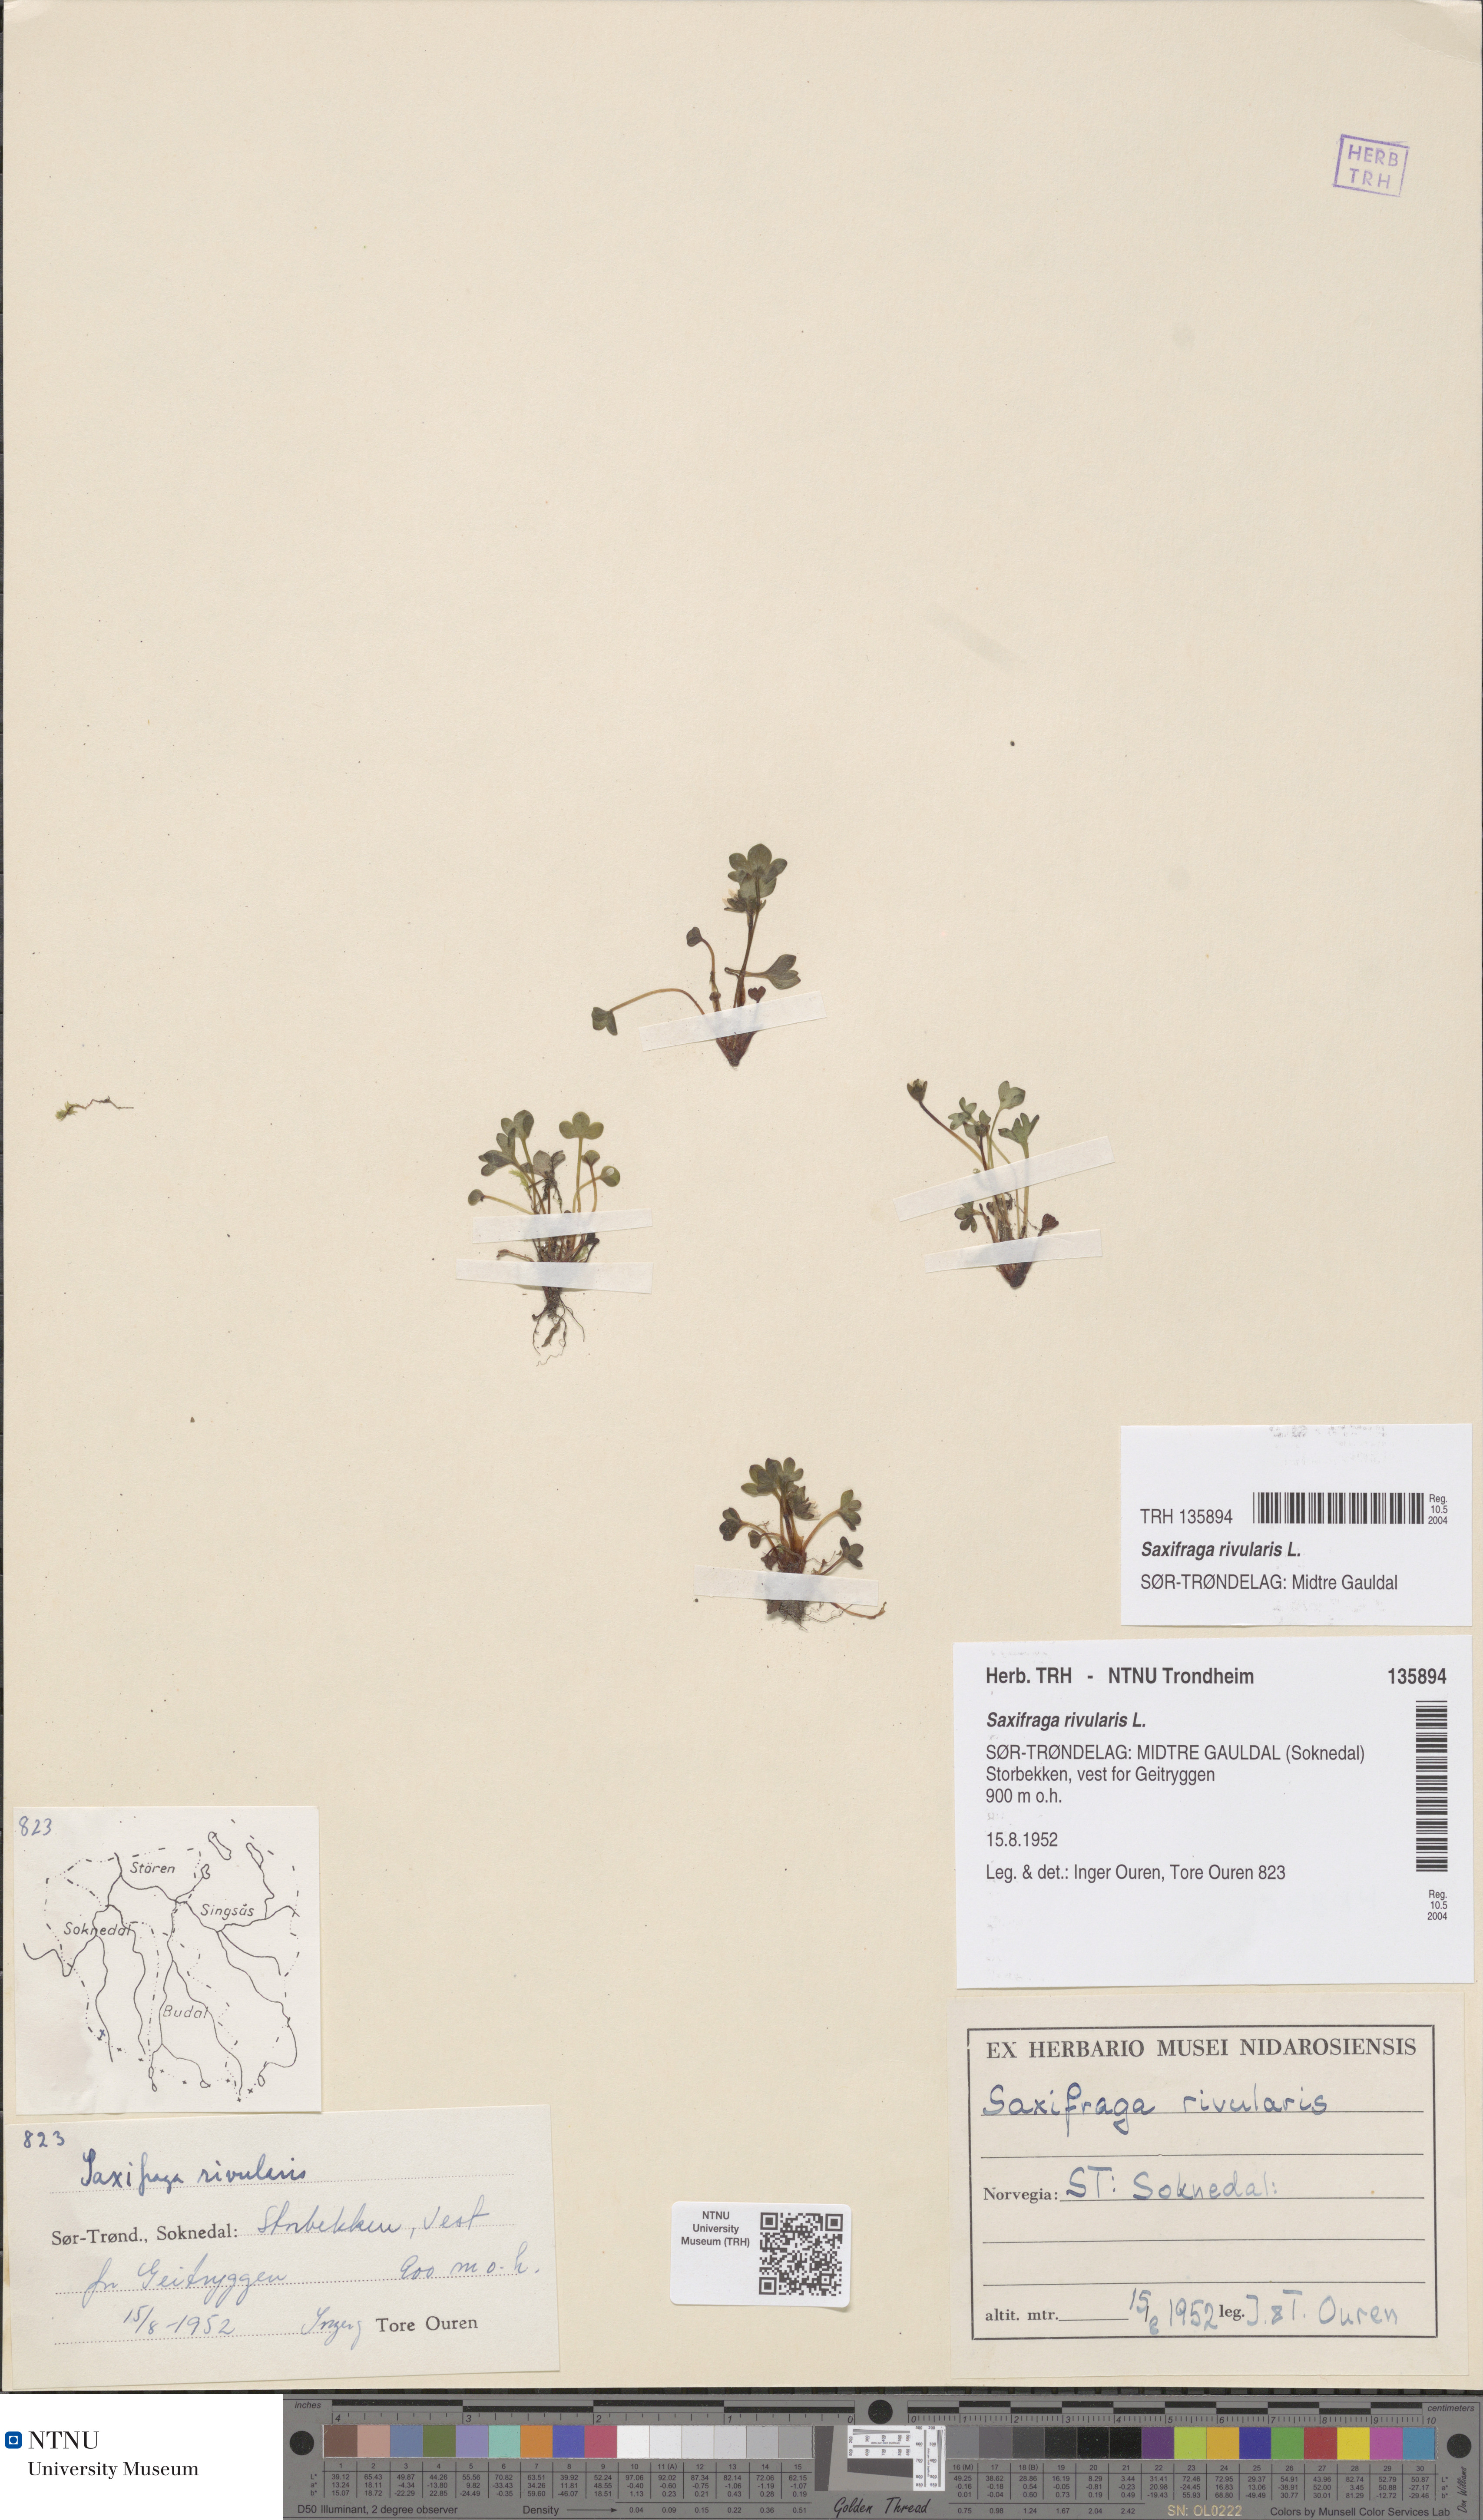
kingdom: Plantae
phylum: Tracheophyta
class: Magnoliopsida
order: Saxifragales
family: Saxifragaceae
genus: Saxifraga
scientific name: Saxifraga rivularis
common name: Highland saxifrage
